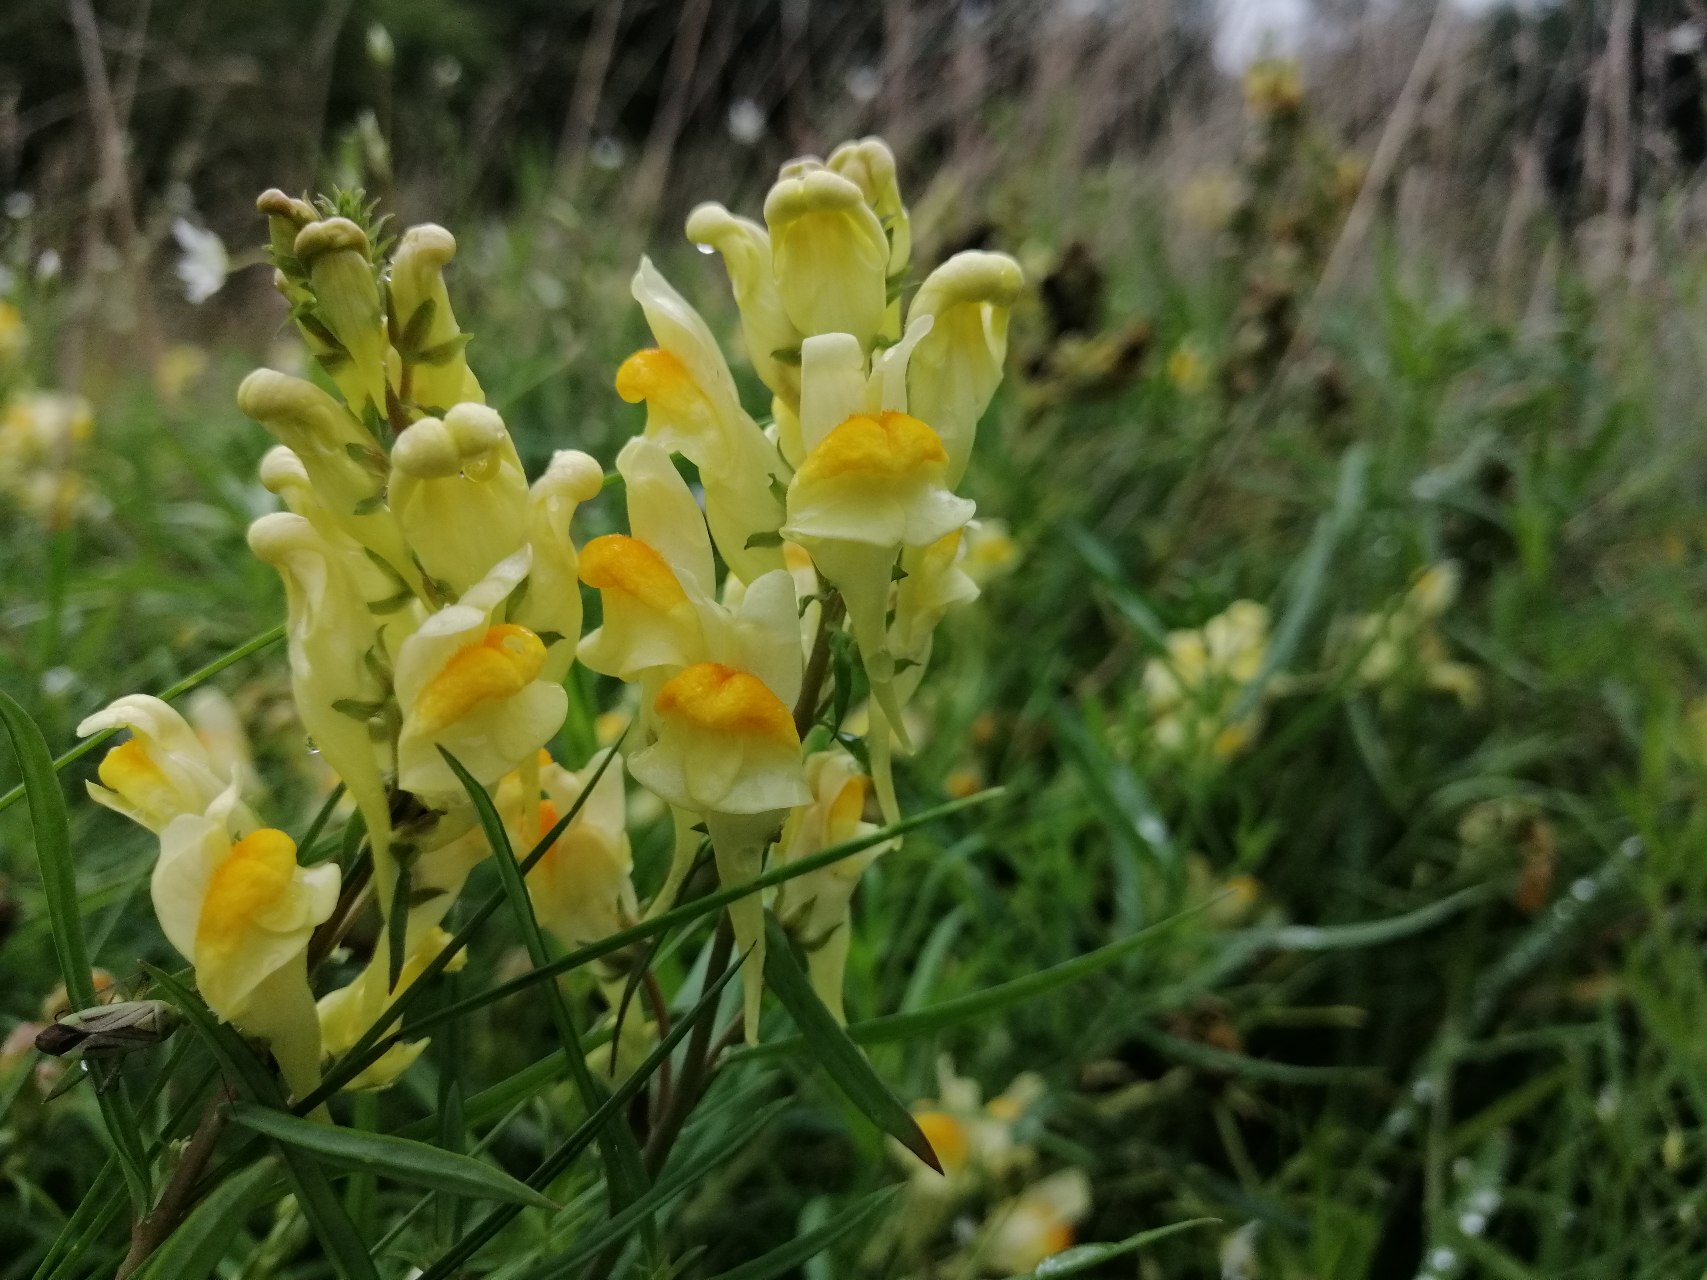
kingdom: Plantae
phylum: Tracheophyta
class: Magnoliopsida
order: Lamiales
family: Plantaginaceae
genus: Linaria
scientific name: Linaria vulgaris
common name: Almindelig torskemund
